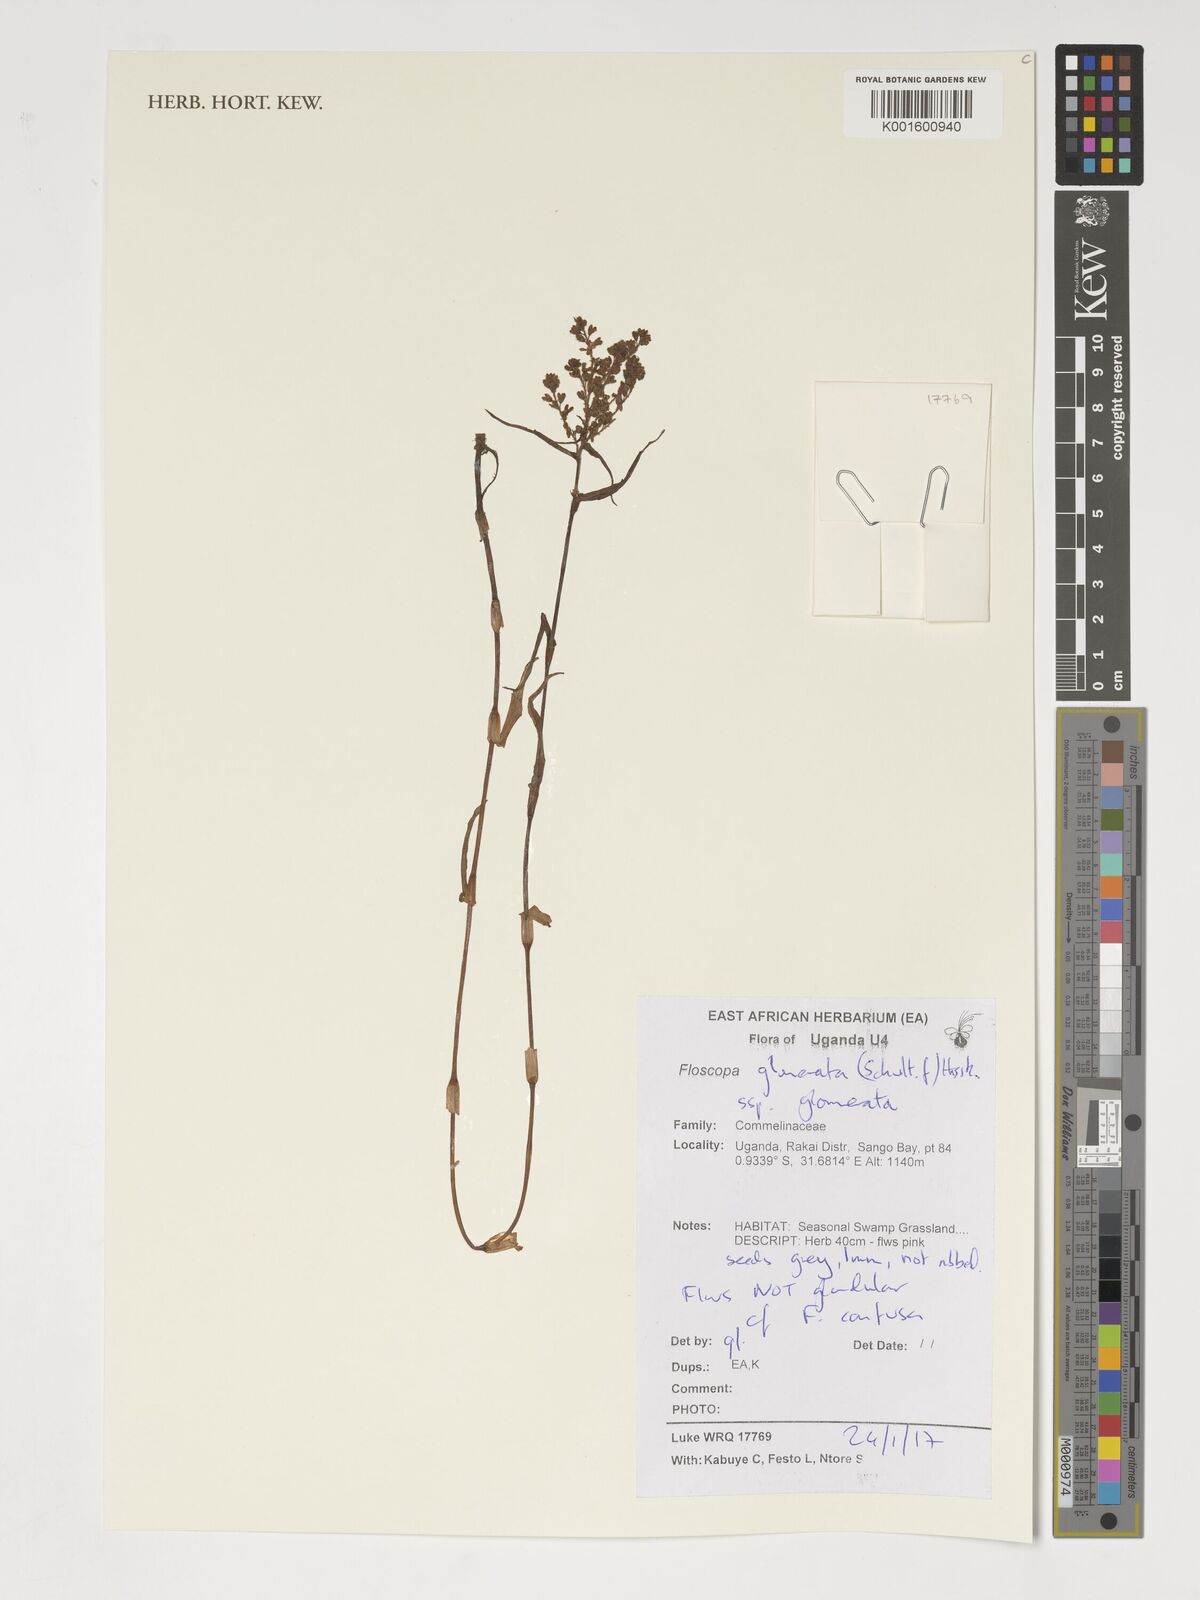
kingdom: Plantae
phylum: Tracheophyta
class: Liliopsida
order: Commelinales
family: Commelinaceae
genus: Floscopa
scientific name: Floscopa glomerata
